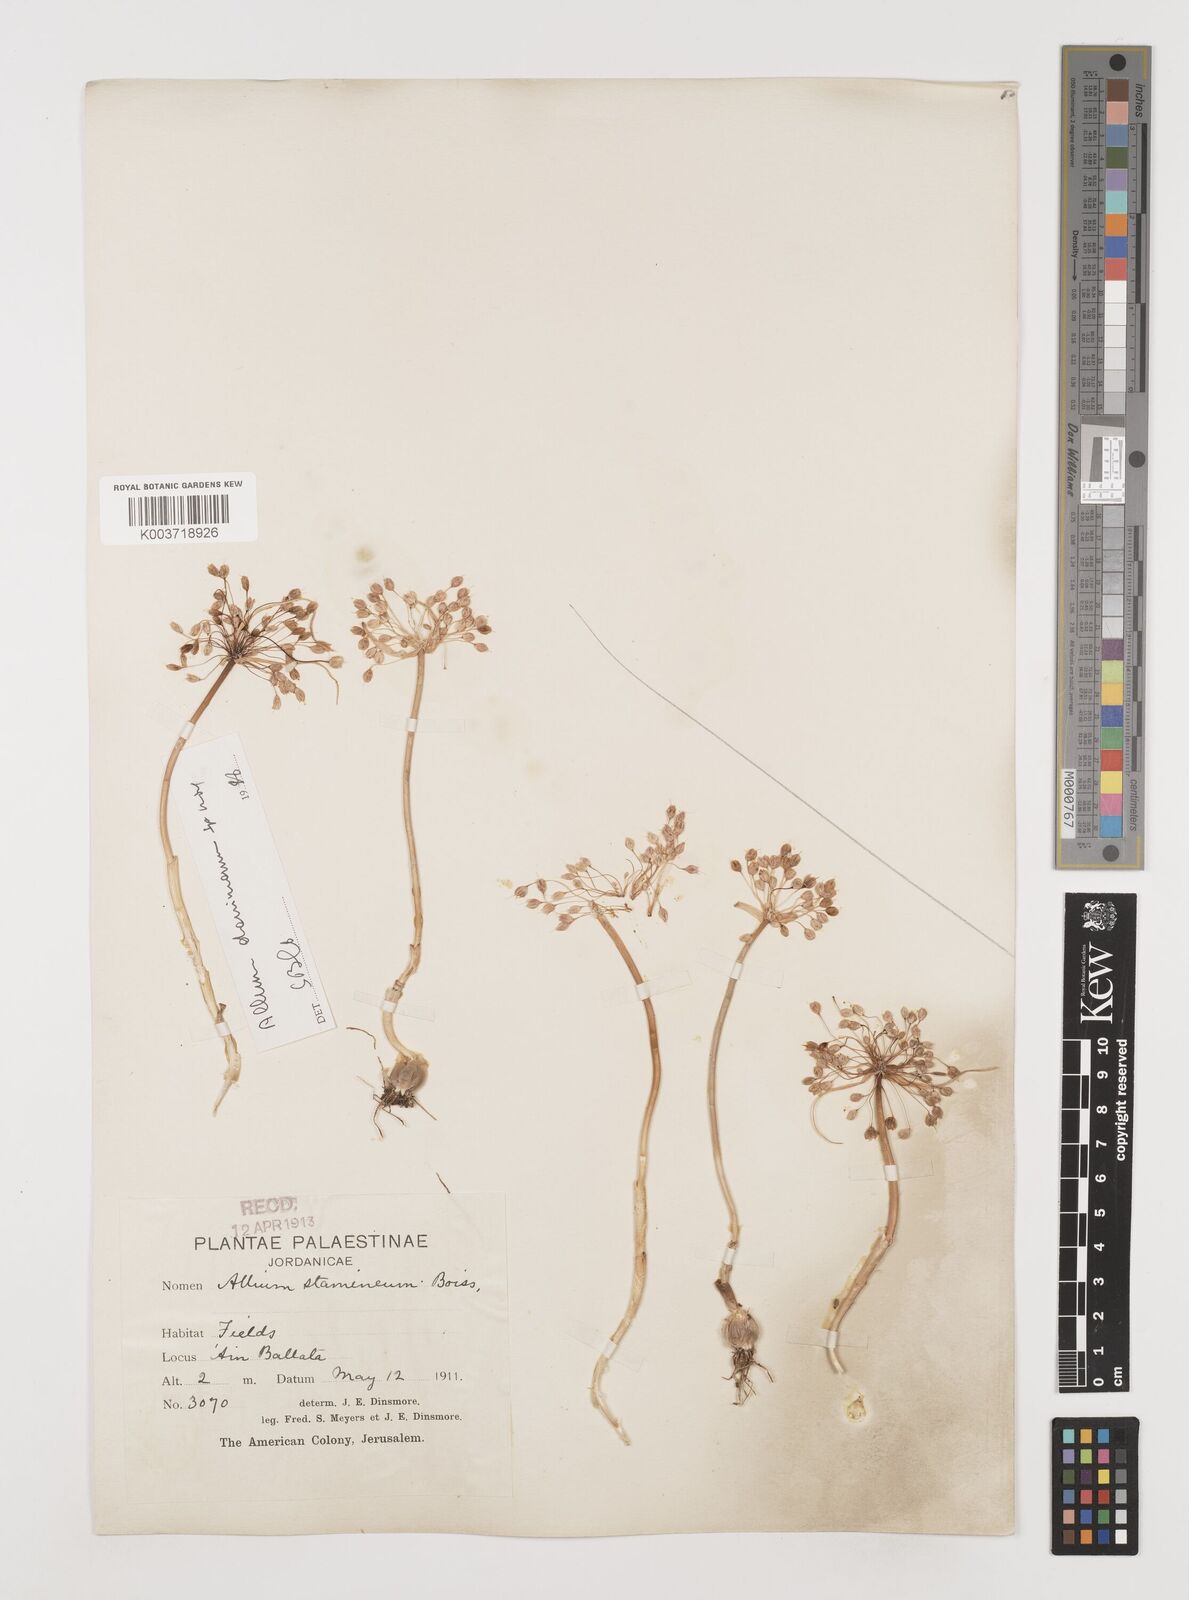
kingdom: Plantae
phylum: Tracheophyta
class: Liliopsida
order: Asparagales
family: Amaryllidaceae
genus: Allium
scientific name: Allium stamineum
